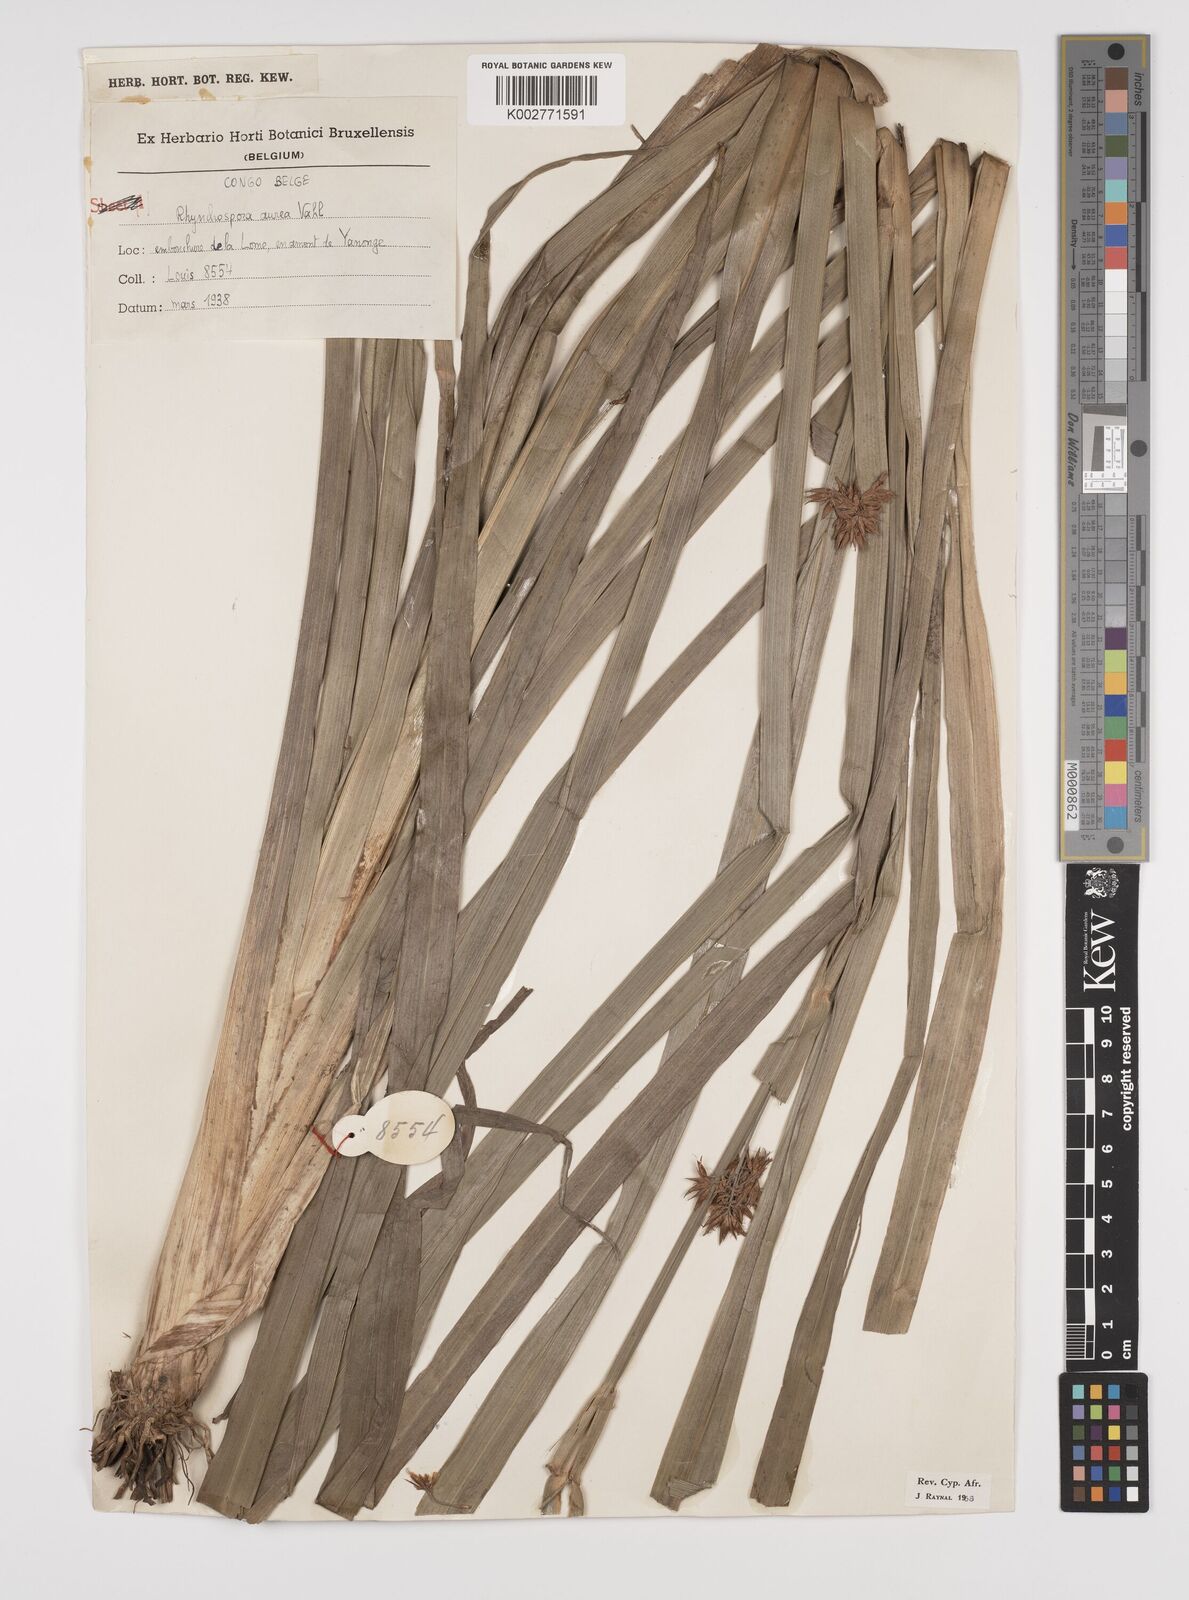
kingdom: Plantae
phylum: Tracheophyta
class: Liliopsida
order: Poales
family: Cyperaceae
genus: Rhynchospora
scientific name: Rhynchospora corymbosa
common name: Golden beak sedge
